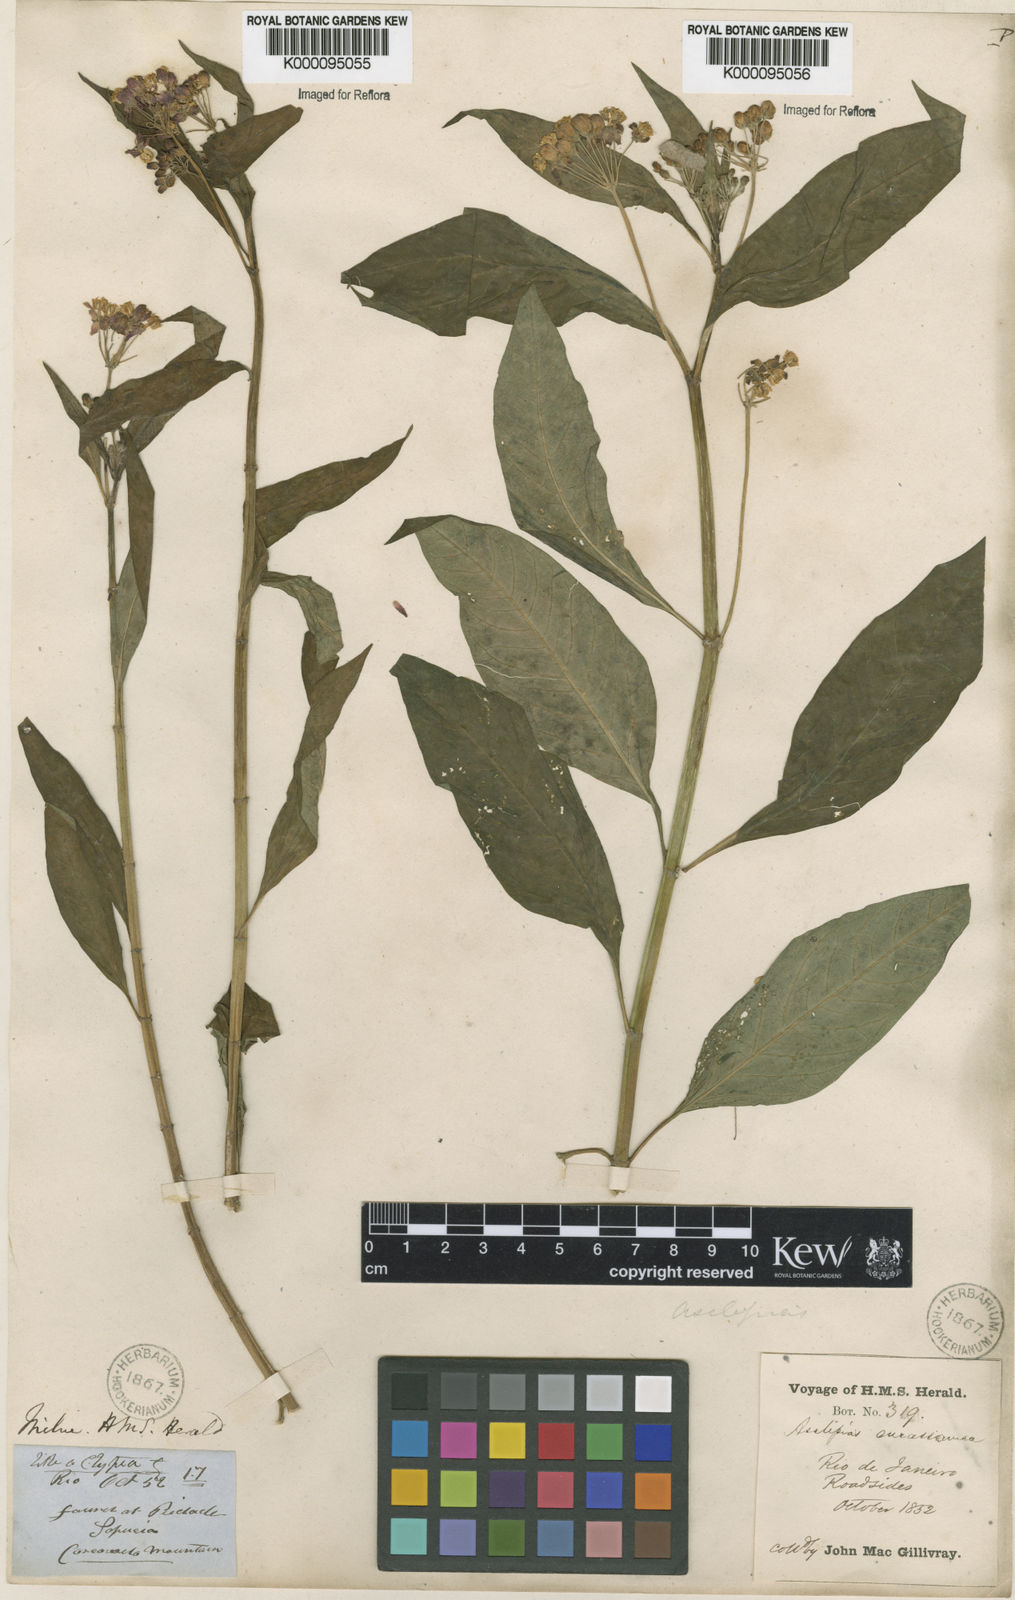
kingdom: Plantae
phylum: Tracheophyta
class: Magnoliopsida
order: Gentianales
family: Apocynaceae
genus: Asclepias
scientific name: Asclepias curassavica
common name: Bloodflower
